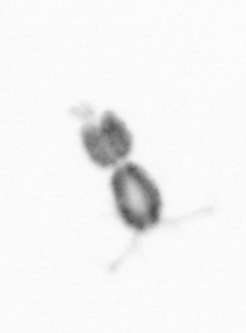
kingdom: Animalia
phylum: Arthropoda
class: Copepoda
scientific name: Copepoda
